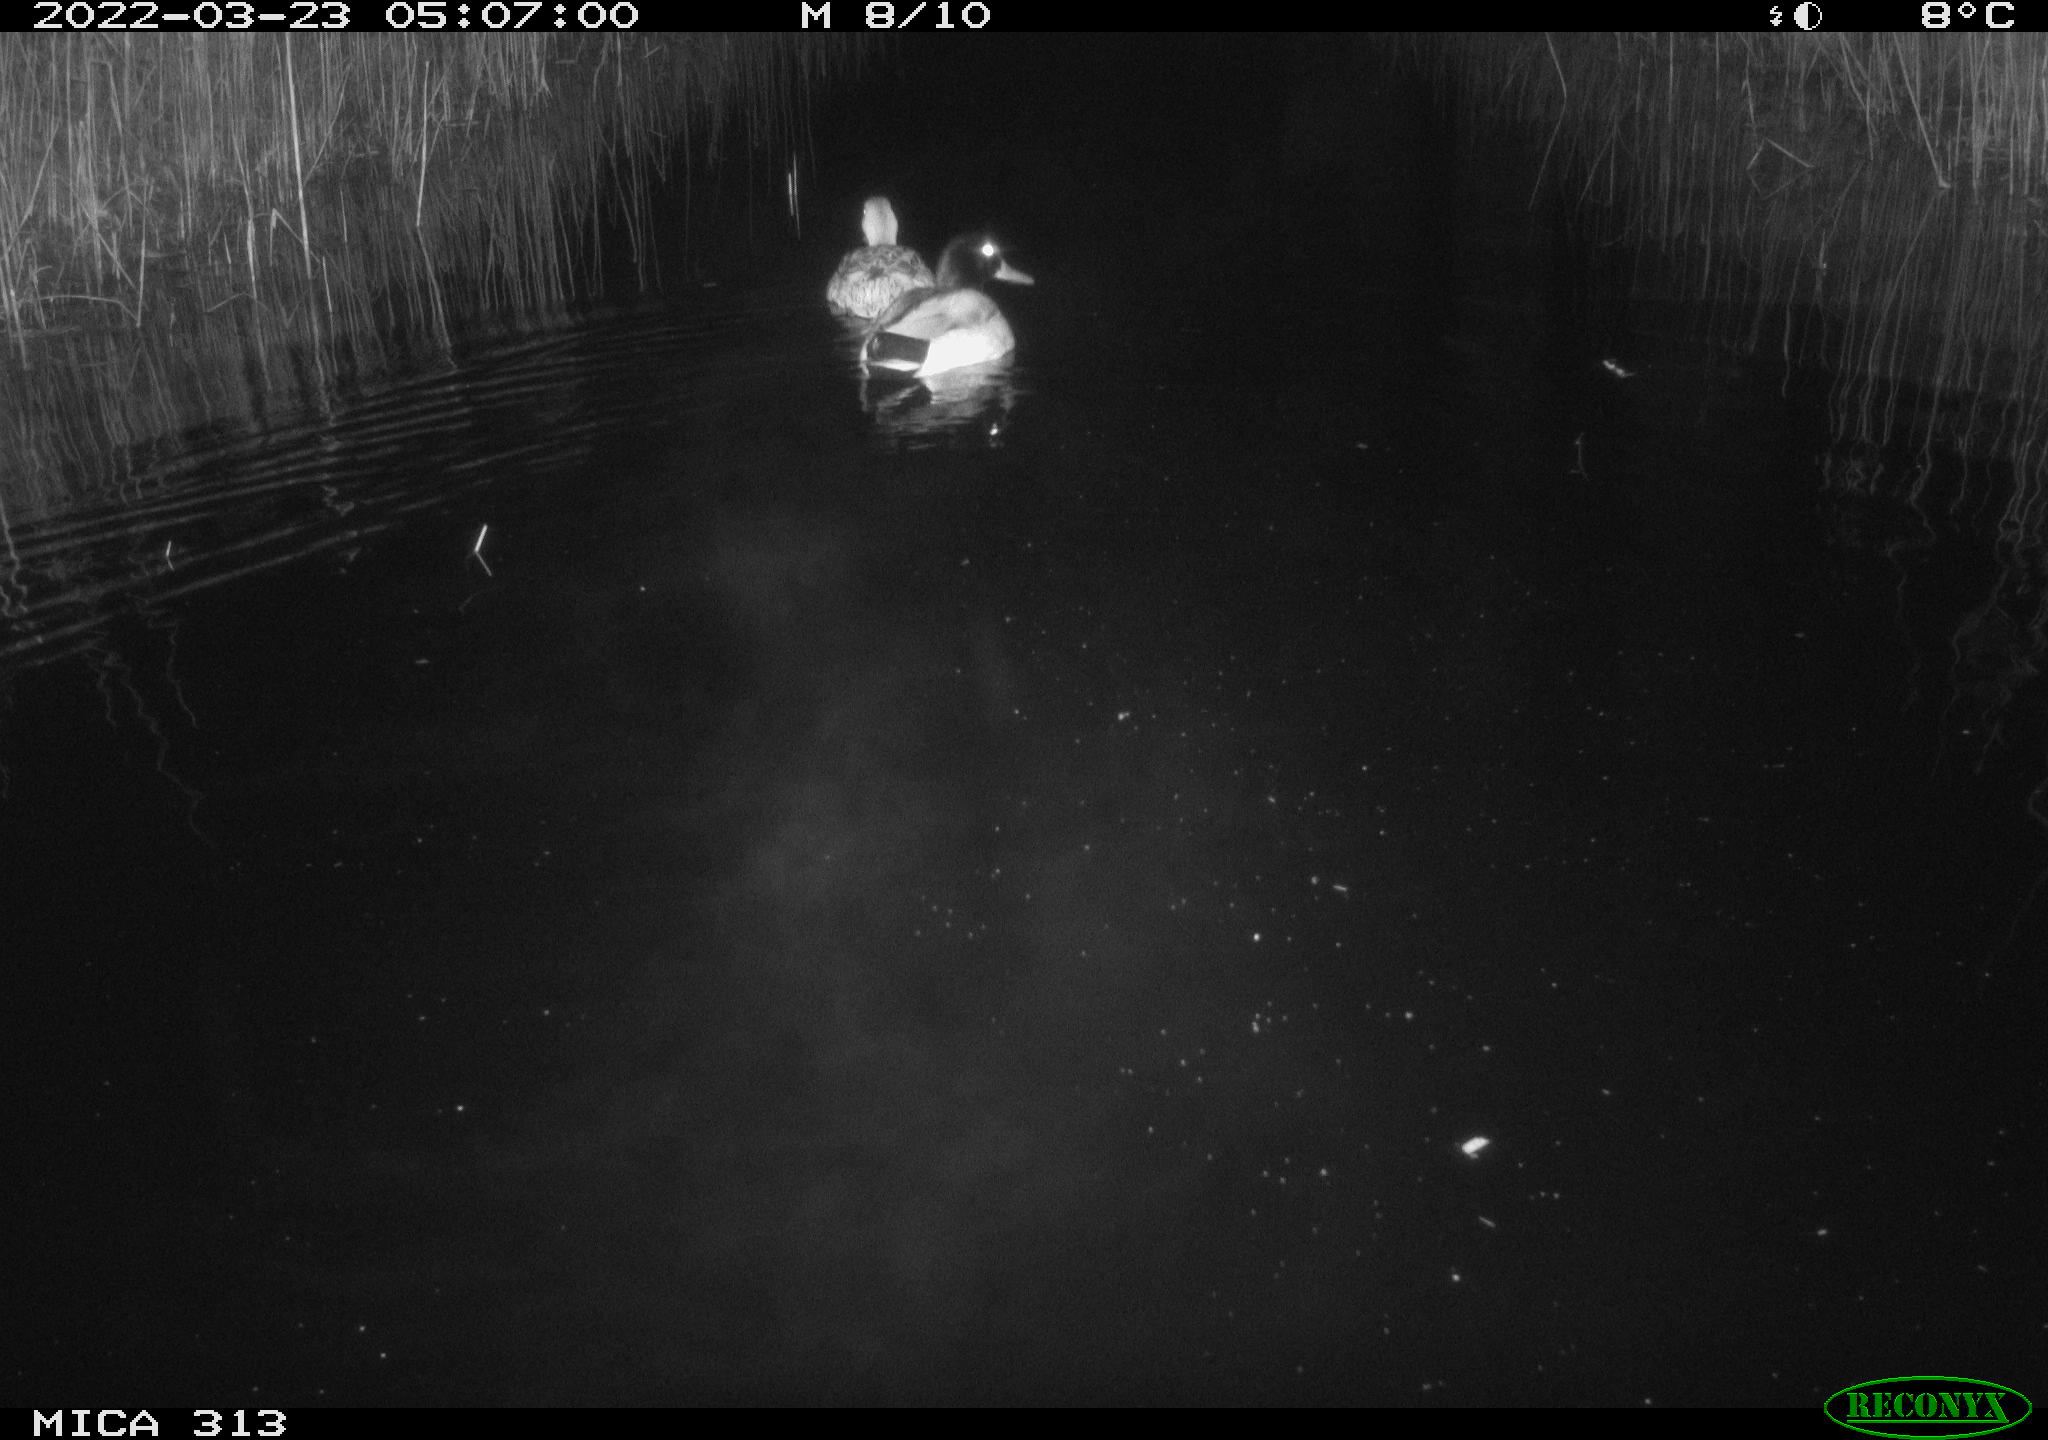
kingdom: Animalia
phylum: Chordata
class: Aves
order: Anseriformes
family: Anatidae
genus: Anas
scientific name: Anas platyrhynchos
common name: Mallard
